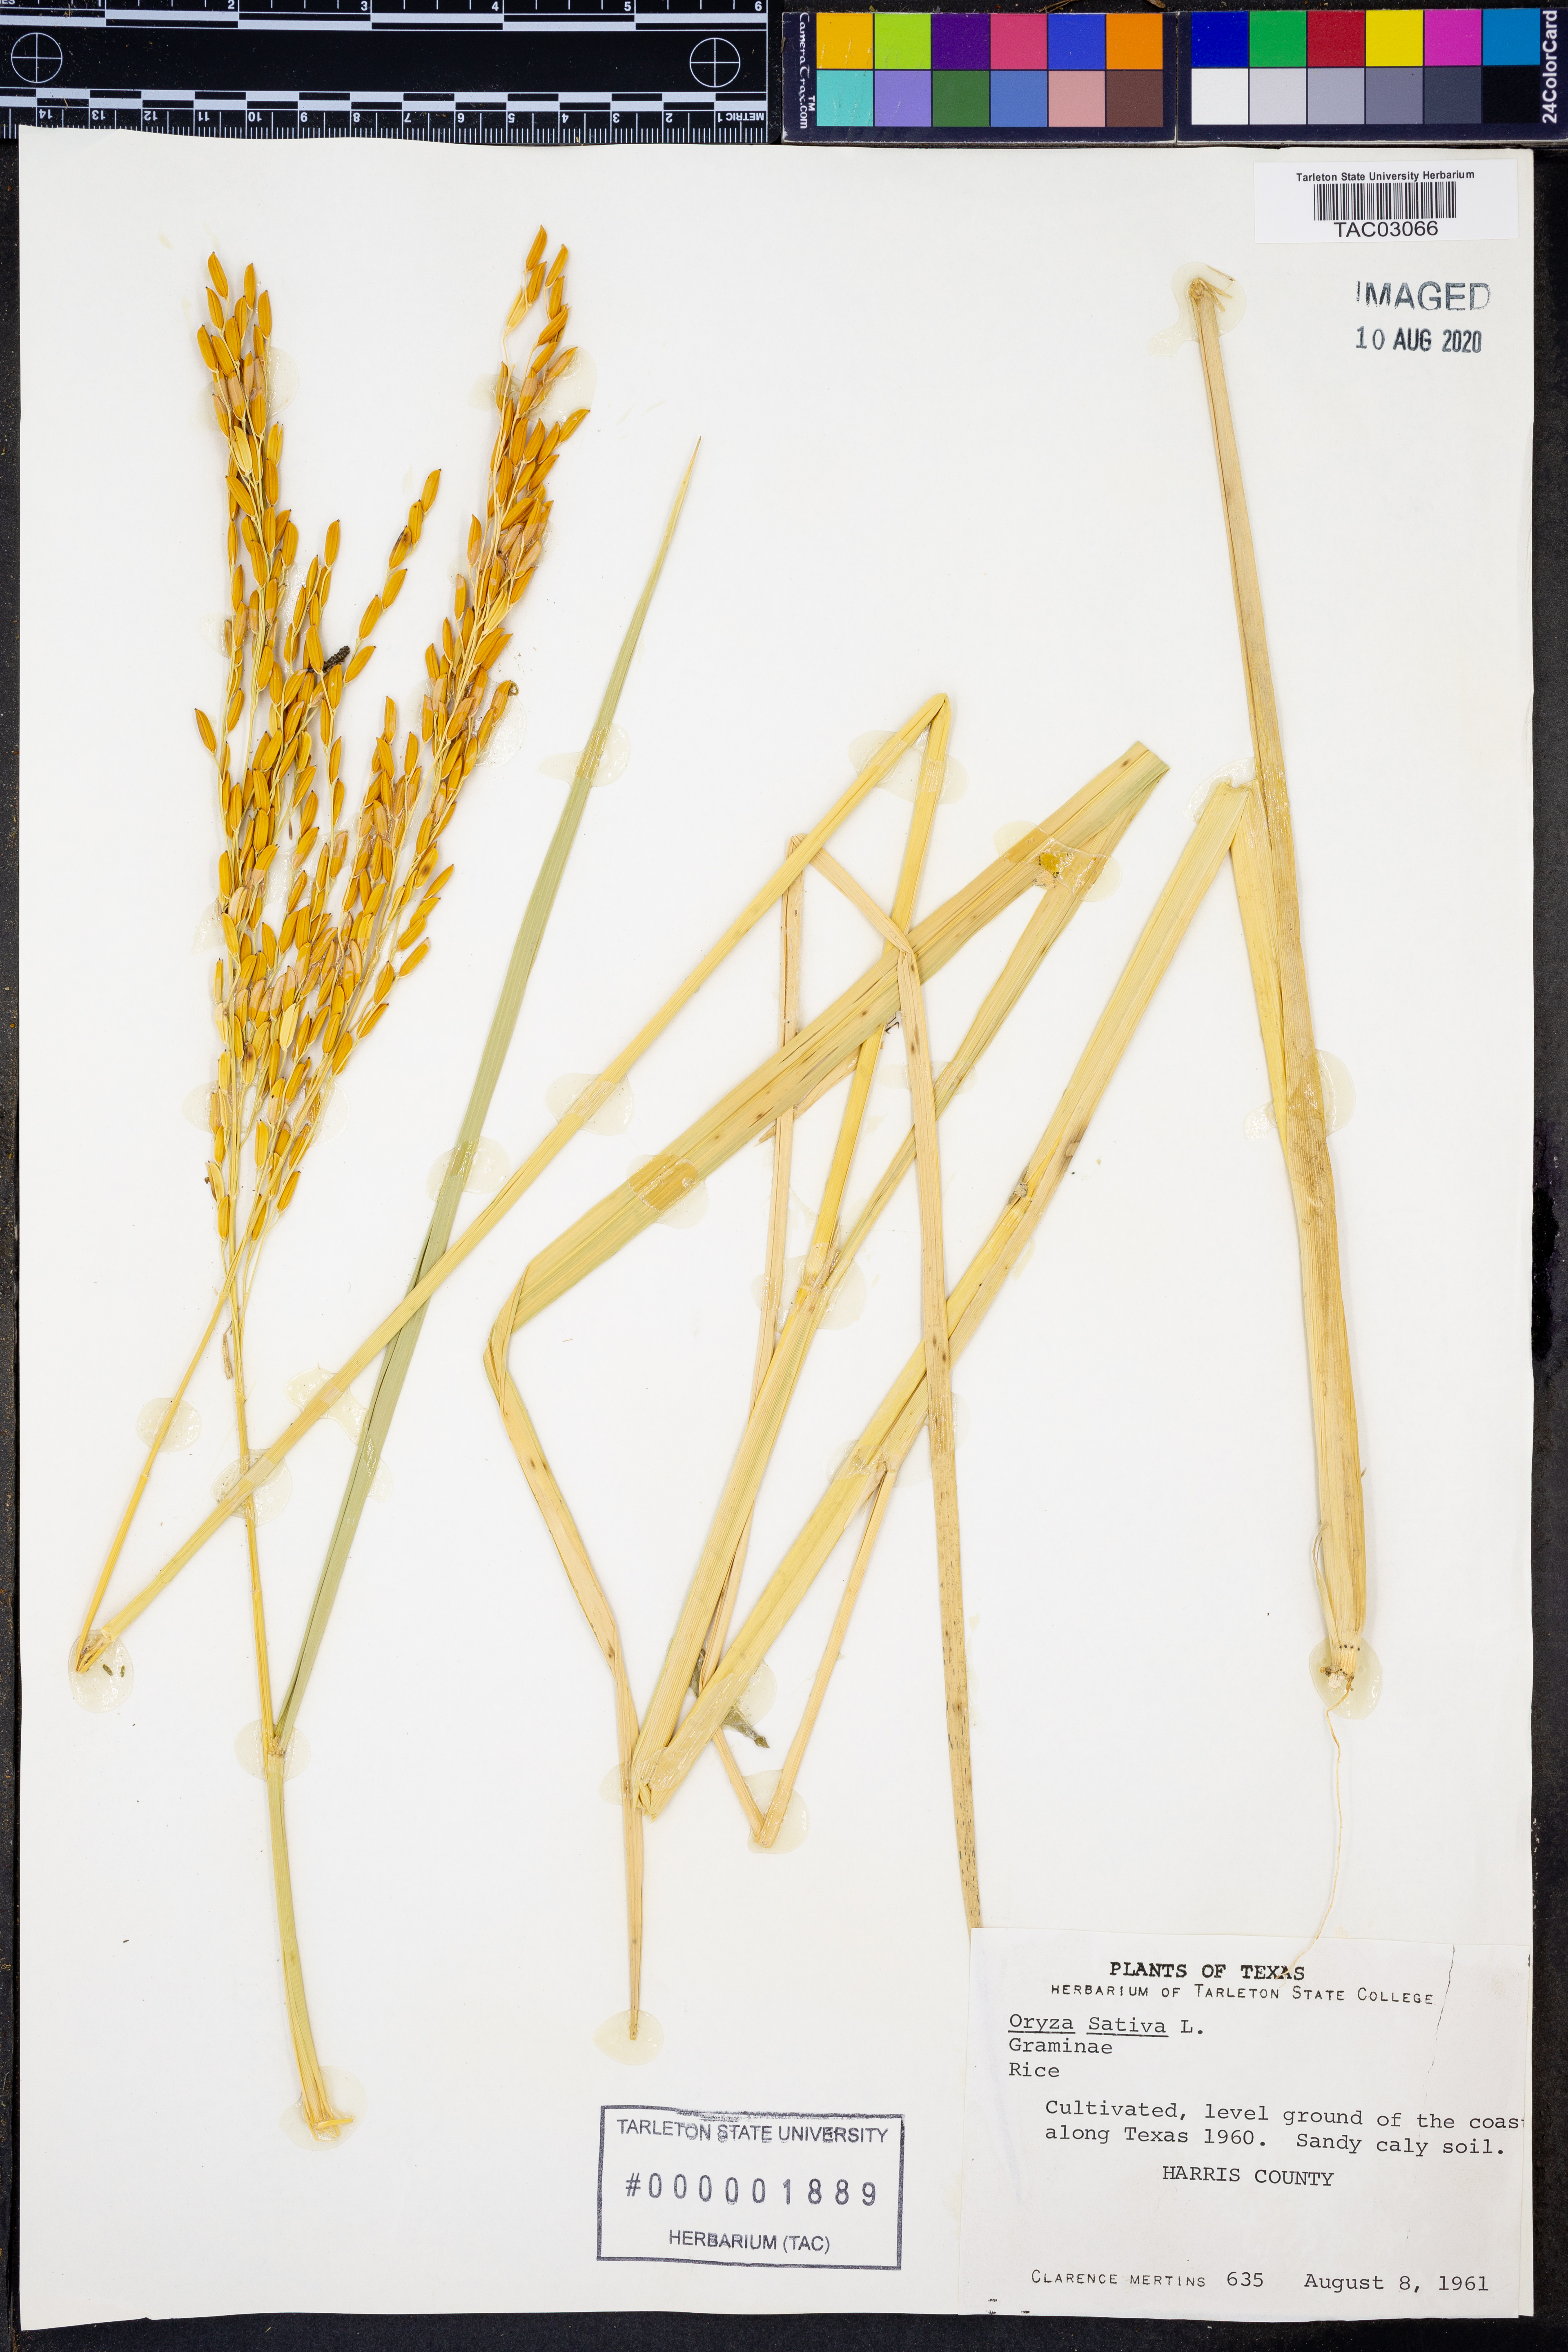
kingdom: Plantae
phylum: Tracheophyta
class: Liliopsida
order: Poales
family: Poaceae
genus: Oryza
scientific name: Oryza sativa
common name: Rice
